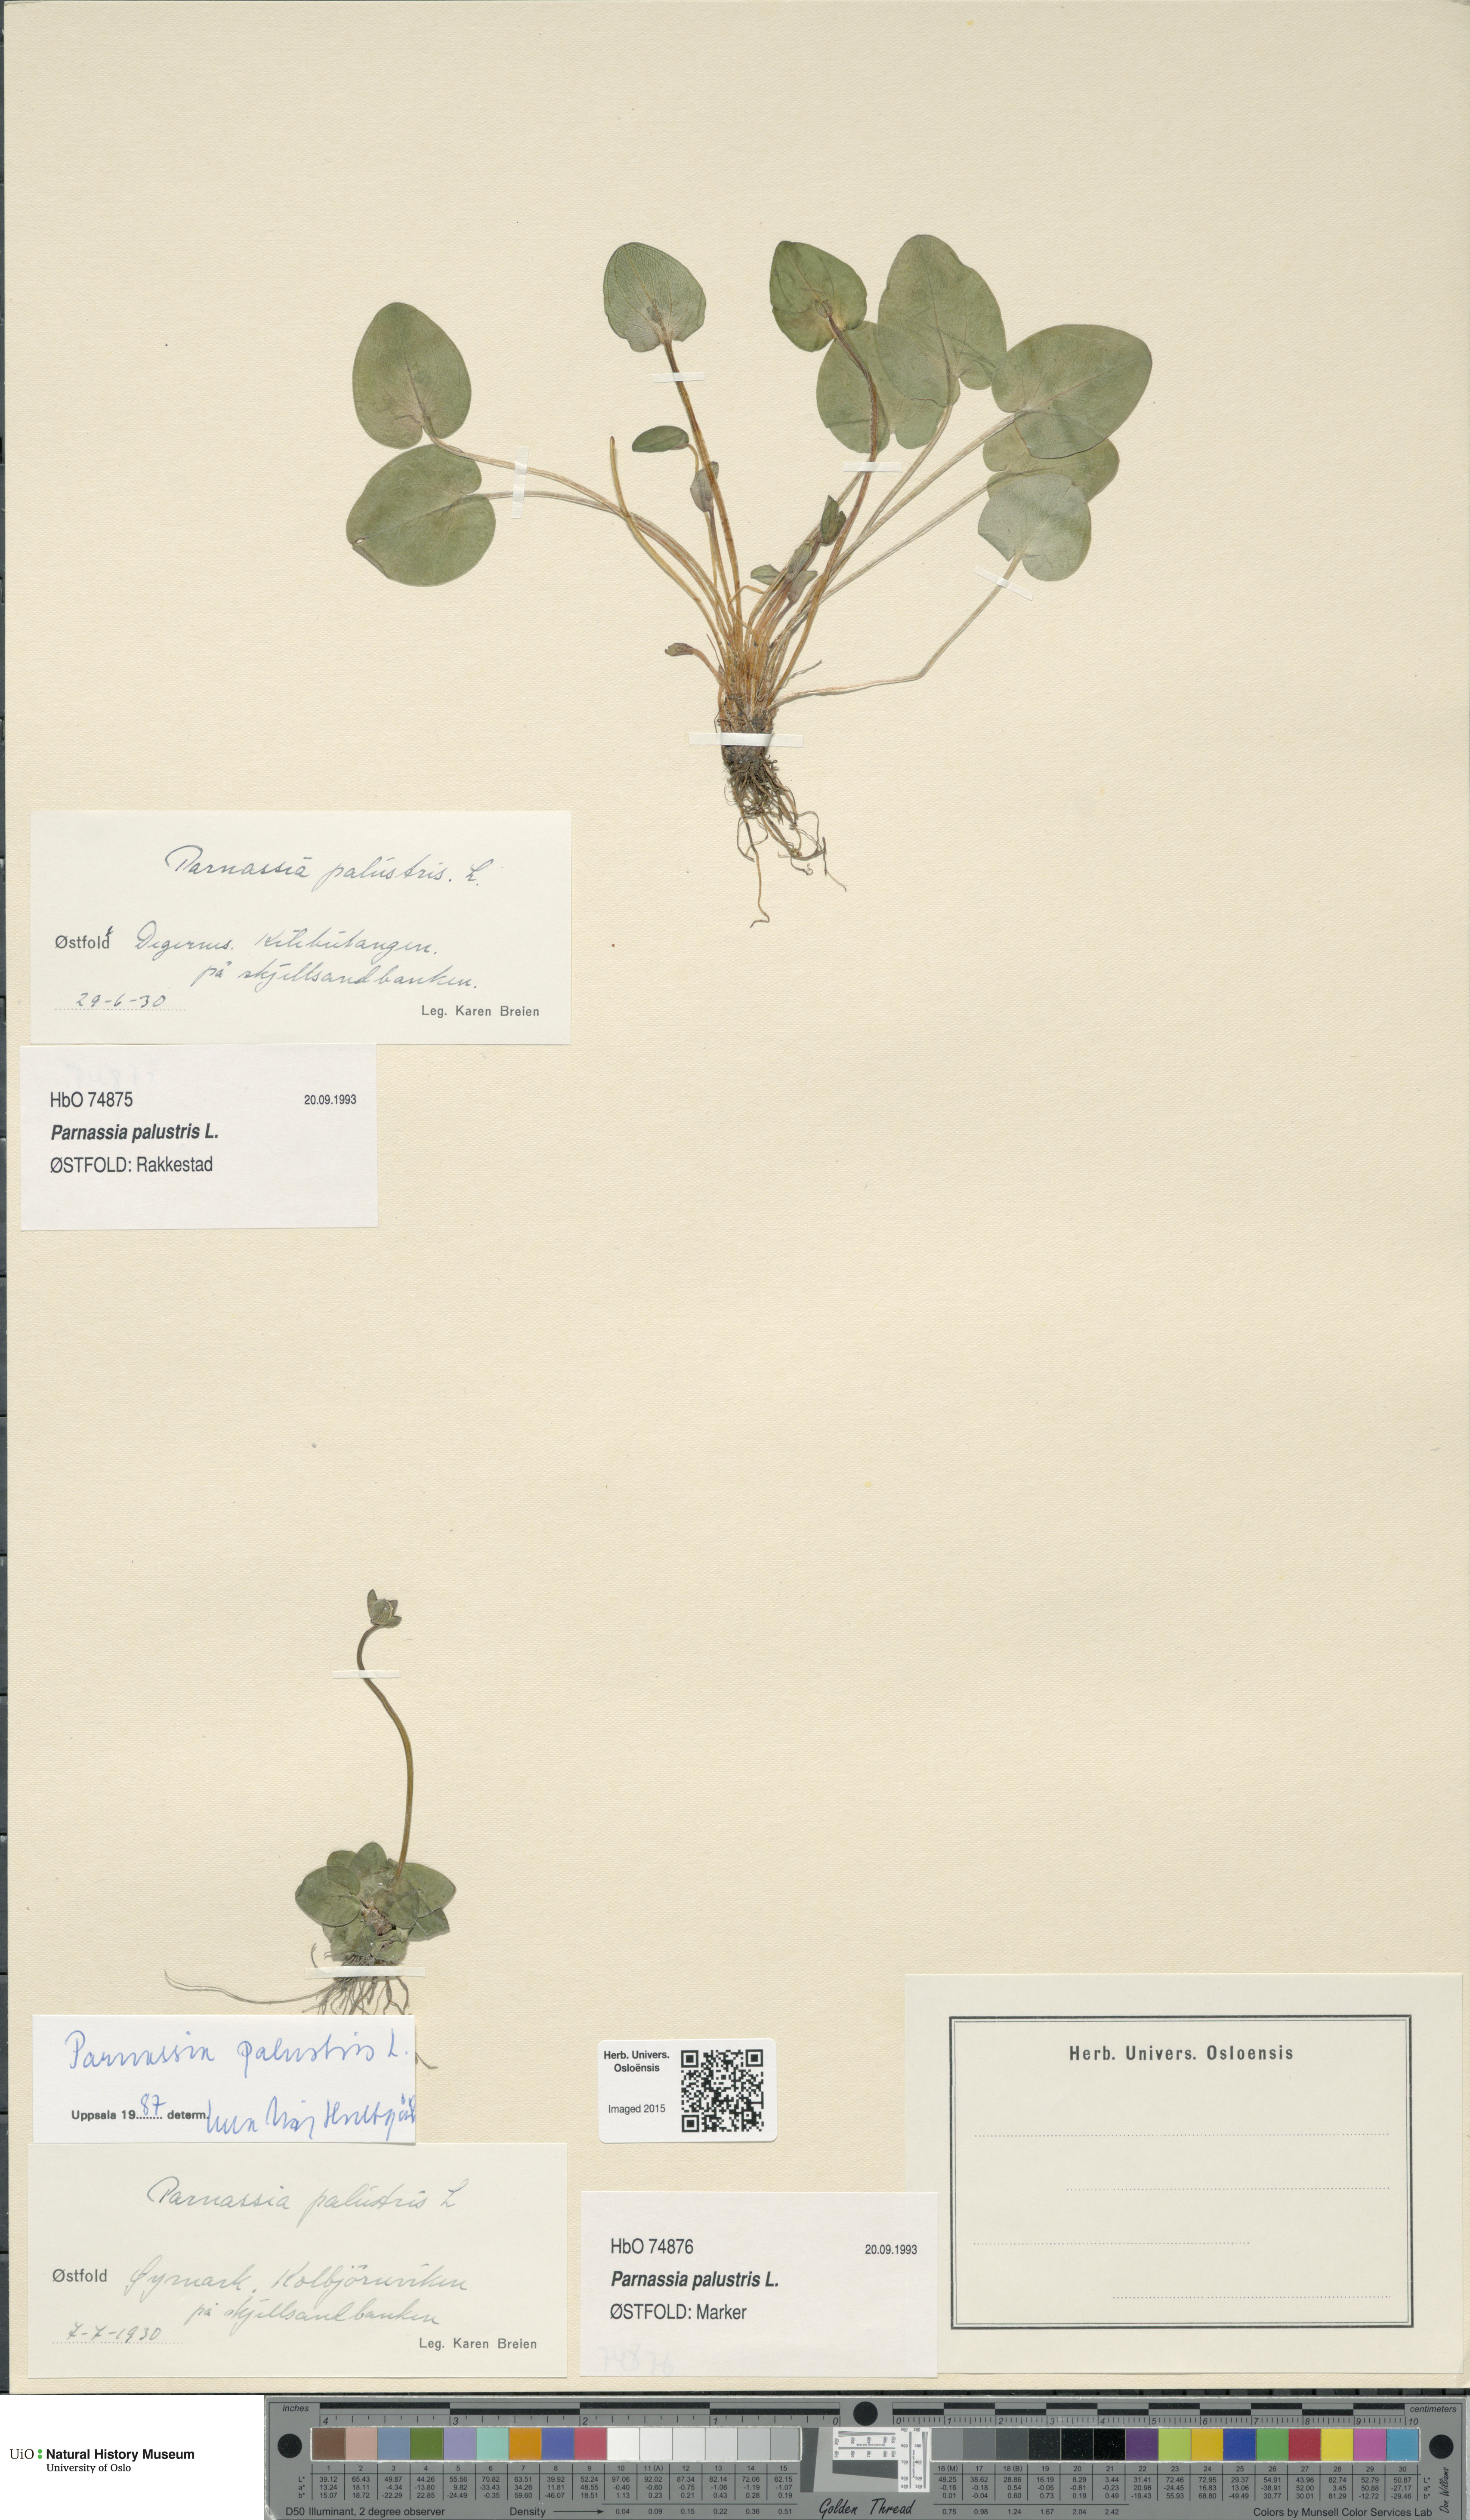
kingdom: Plantae
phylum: Tracheophyta
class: Magnoliopsida
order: Celastrales
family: Parnassiaceae
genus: Parnassia
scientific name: Parnassia palustris
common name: Grass-of-parnassus
